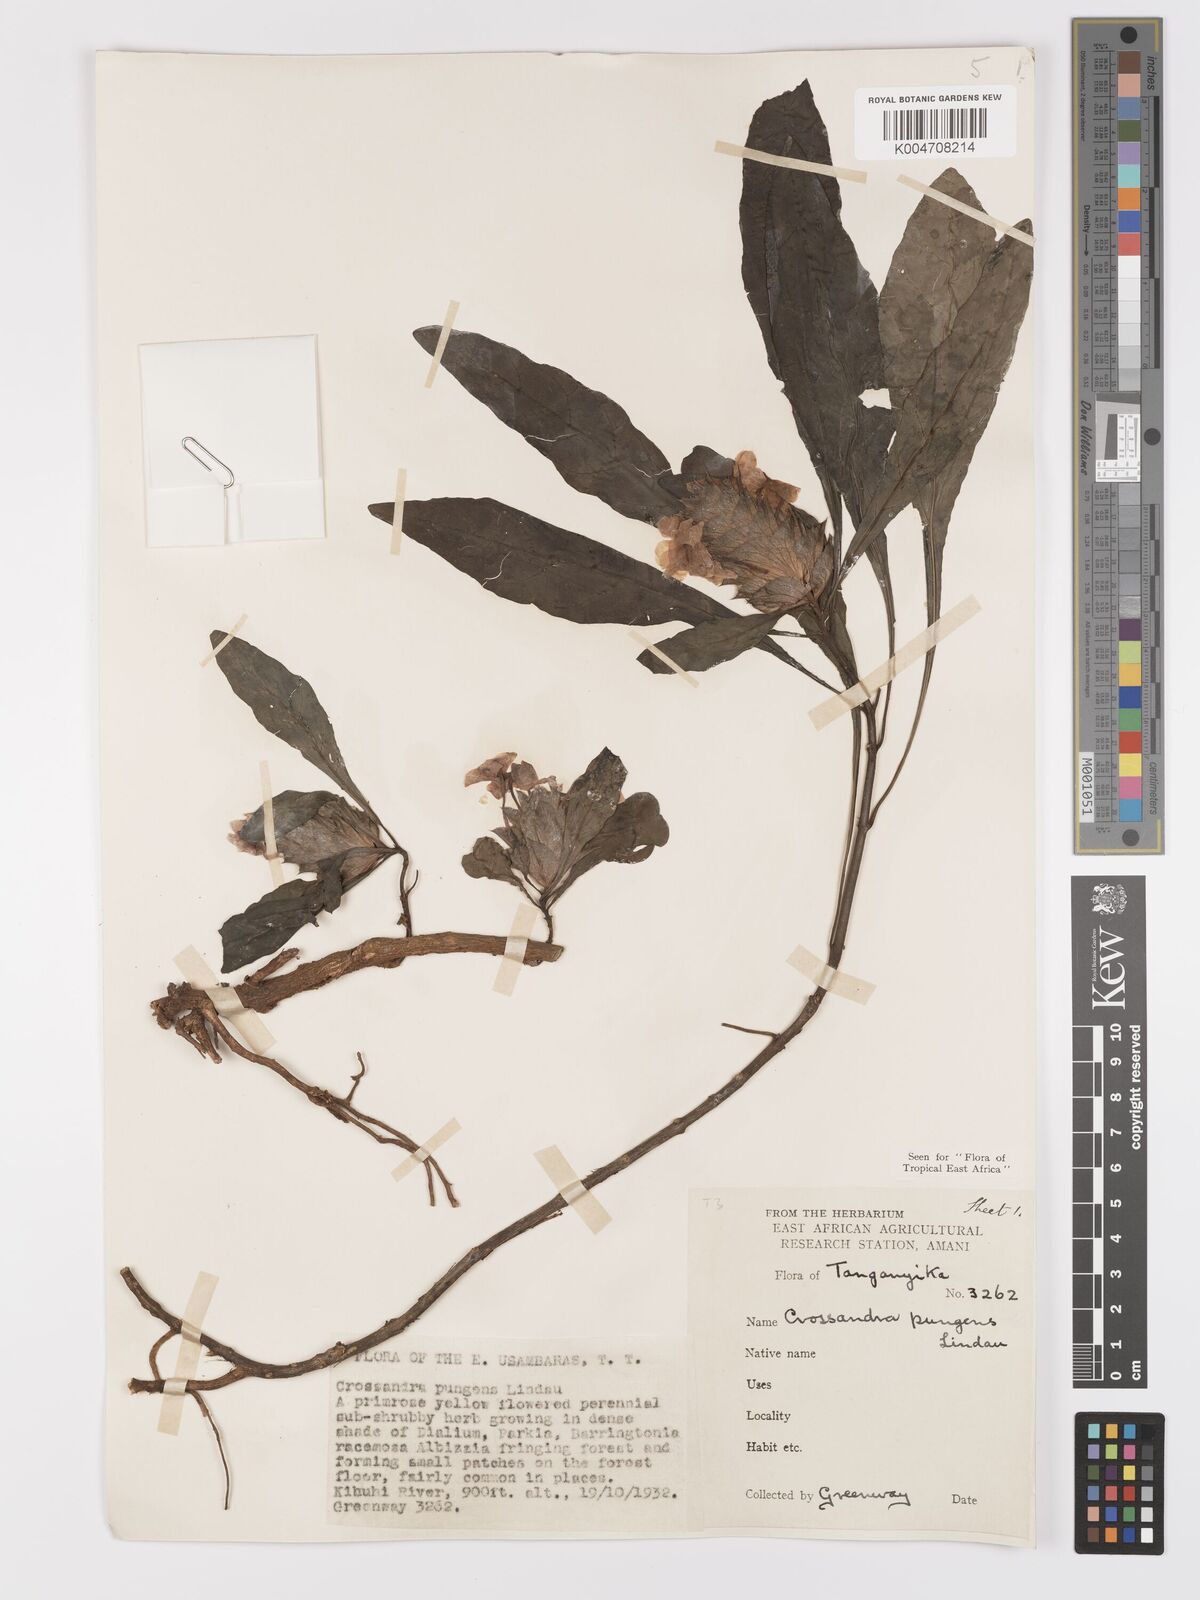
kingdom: Plantae
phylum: Tracheophyta
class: Magnoliopsida
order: Lamiales
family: Acanthaceae
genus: Crossandra
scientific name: Crossandra pungens
